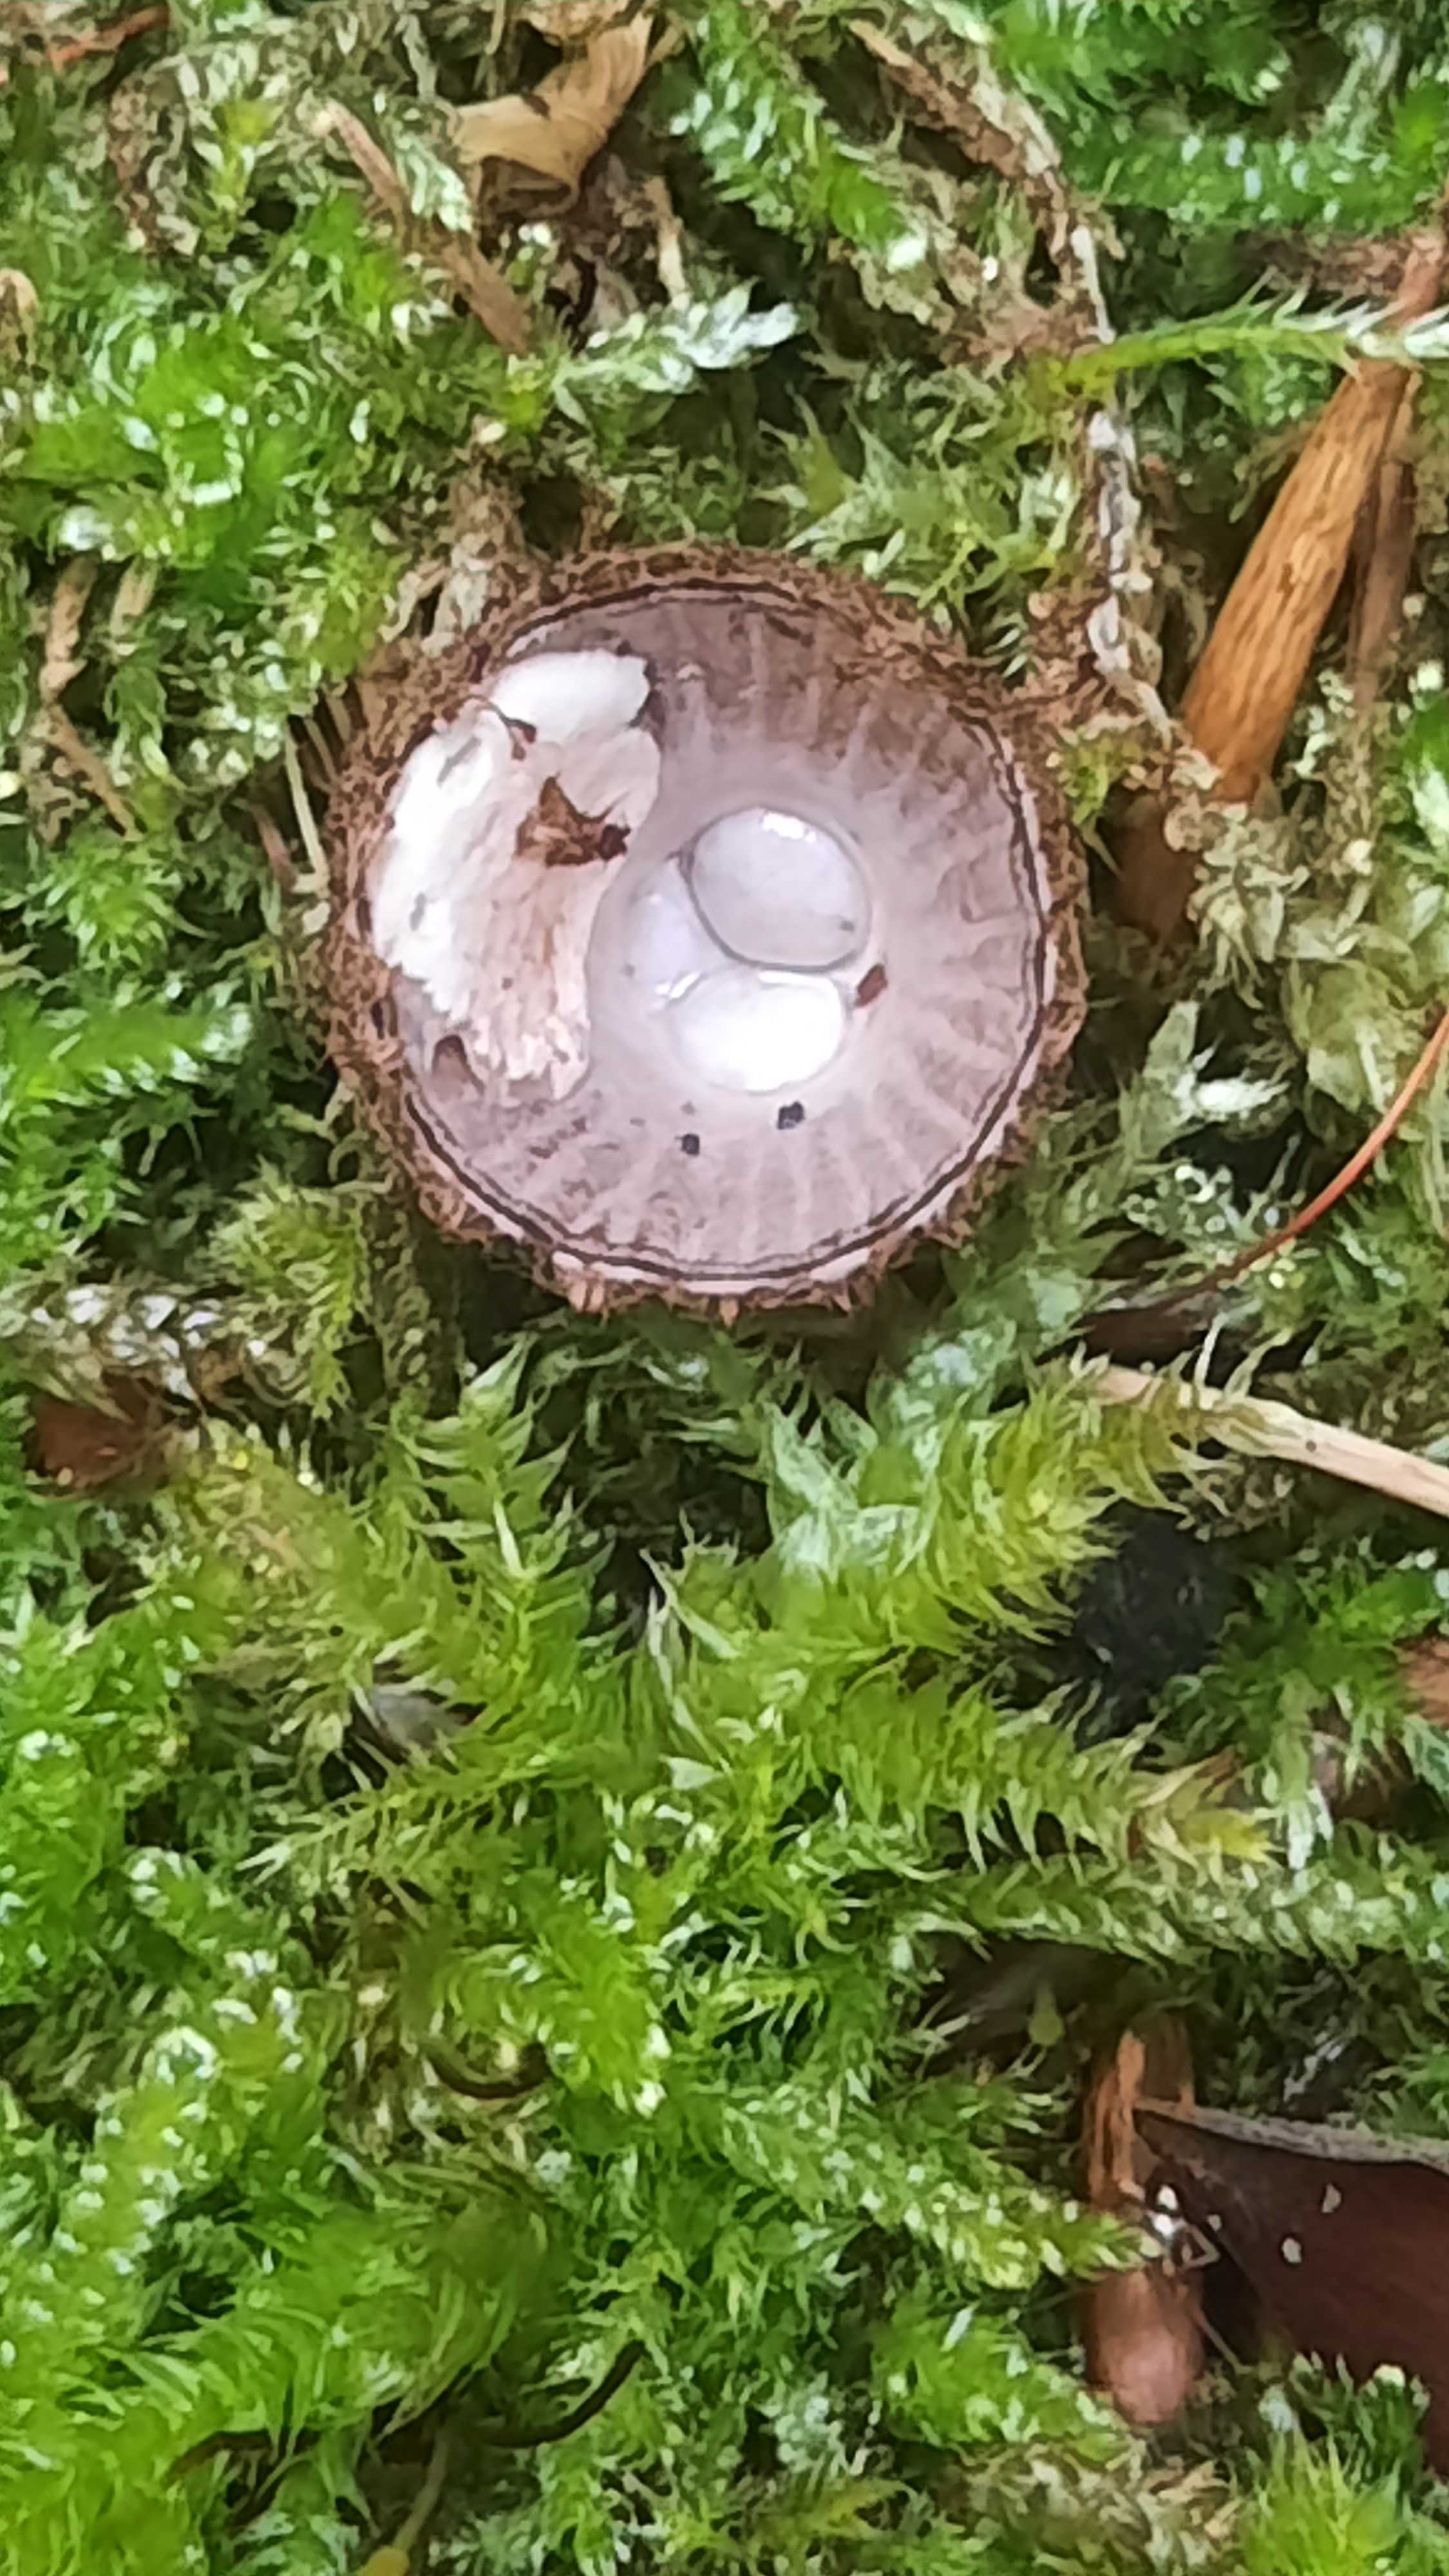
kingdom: Fungi
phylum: Basidiomycota
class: Agaricomycetes
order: Agaricales
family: Agaricaceae
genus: Cyathus
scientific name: Cyathus striatus
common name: stribet redesvamp
